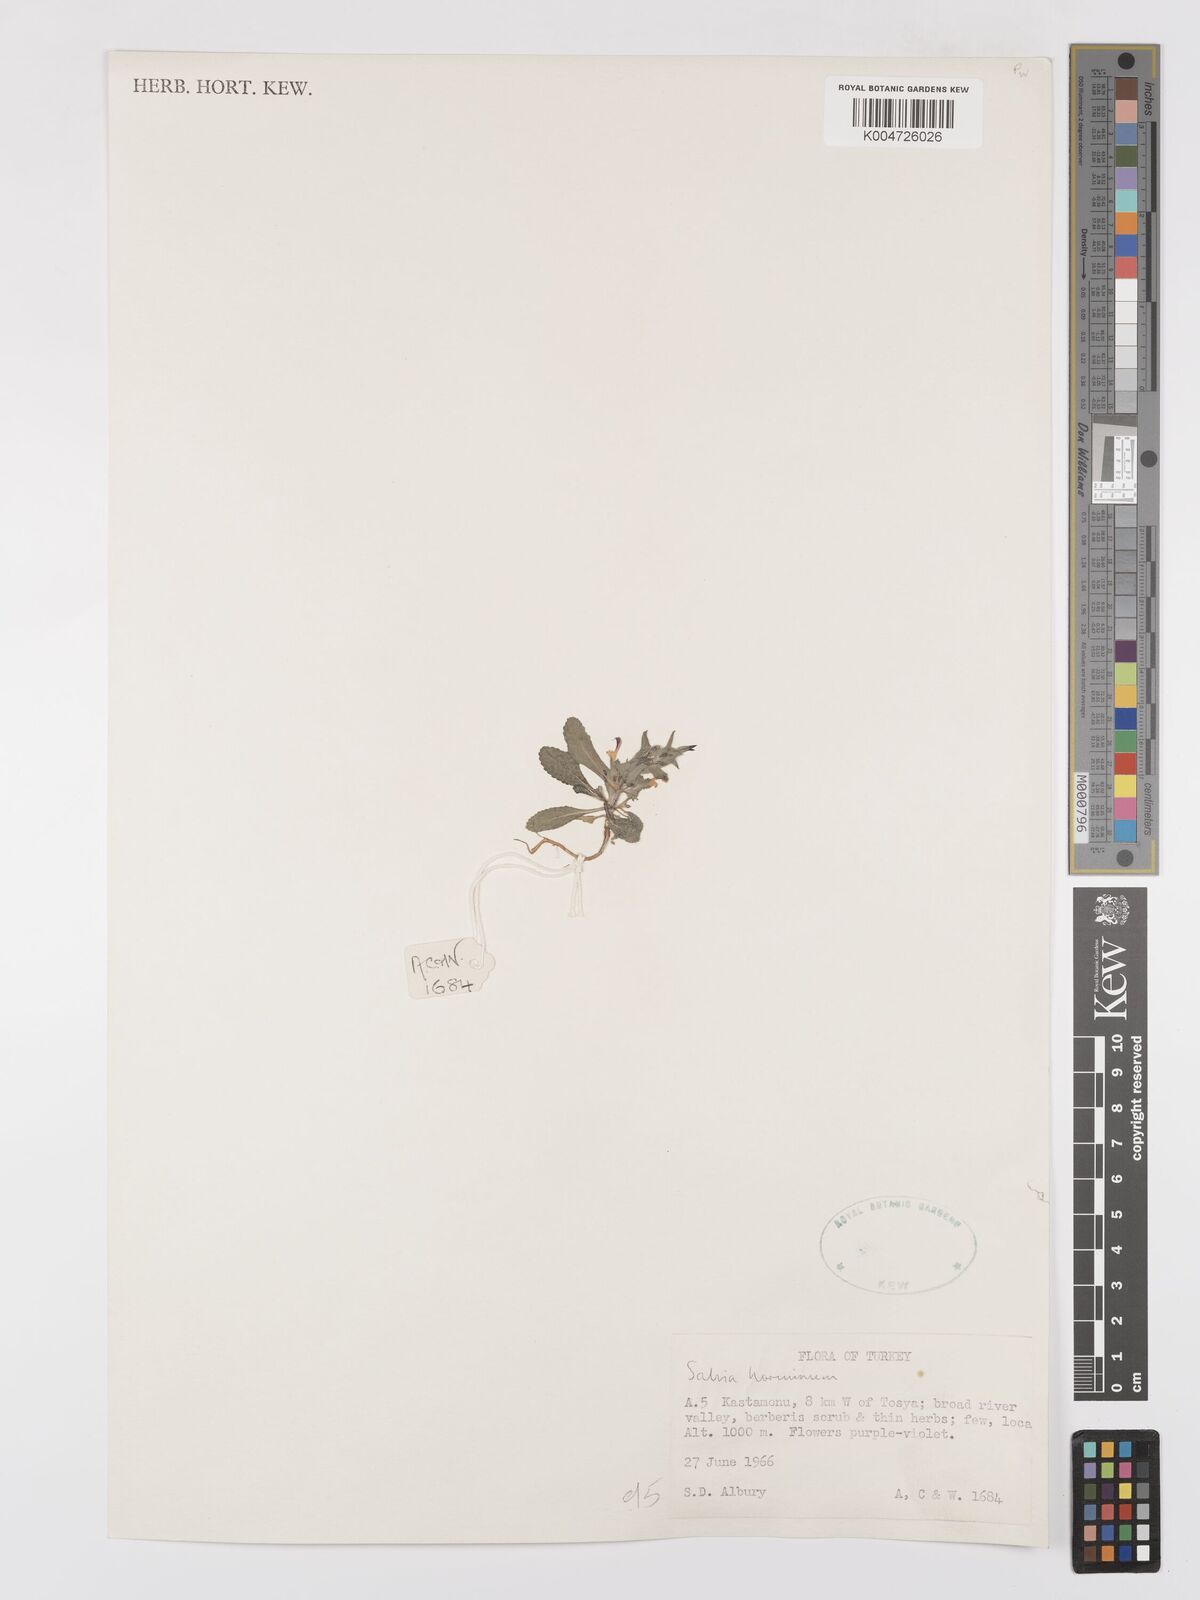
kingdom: Plantae
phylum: Tracheophyta
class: Magnoliopsida
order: Lamiales
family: Lamiaceae
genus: Salvia
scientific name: Salvia viridis
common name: Annual clary
